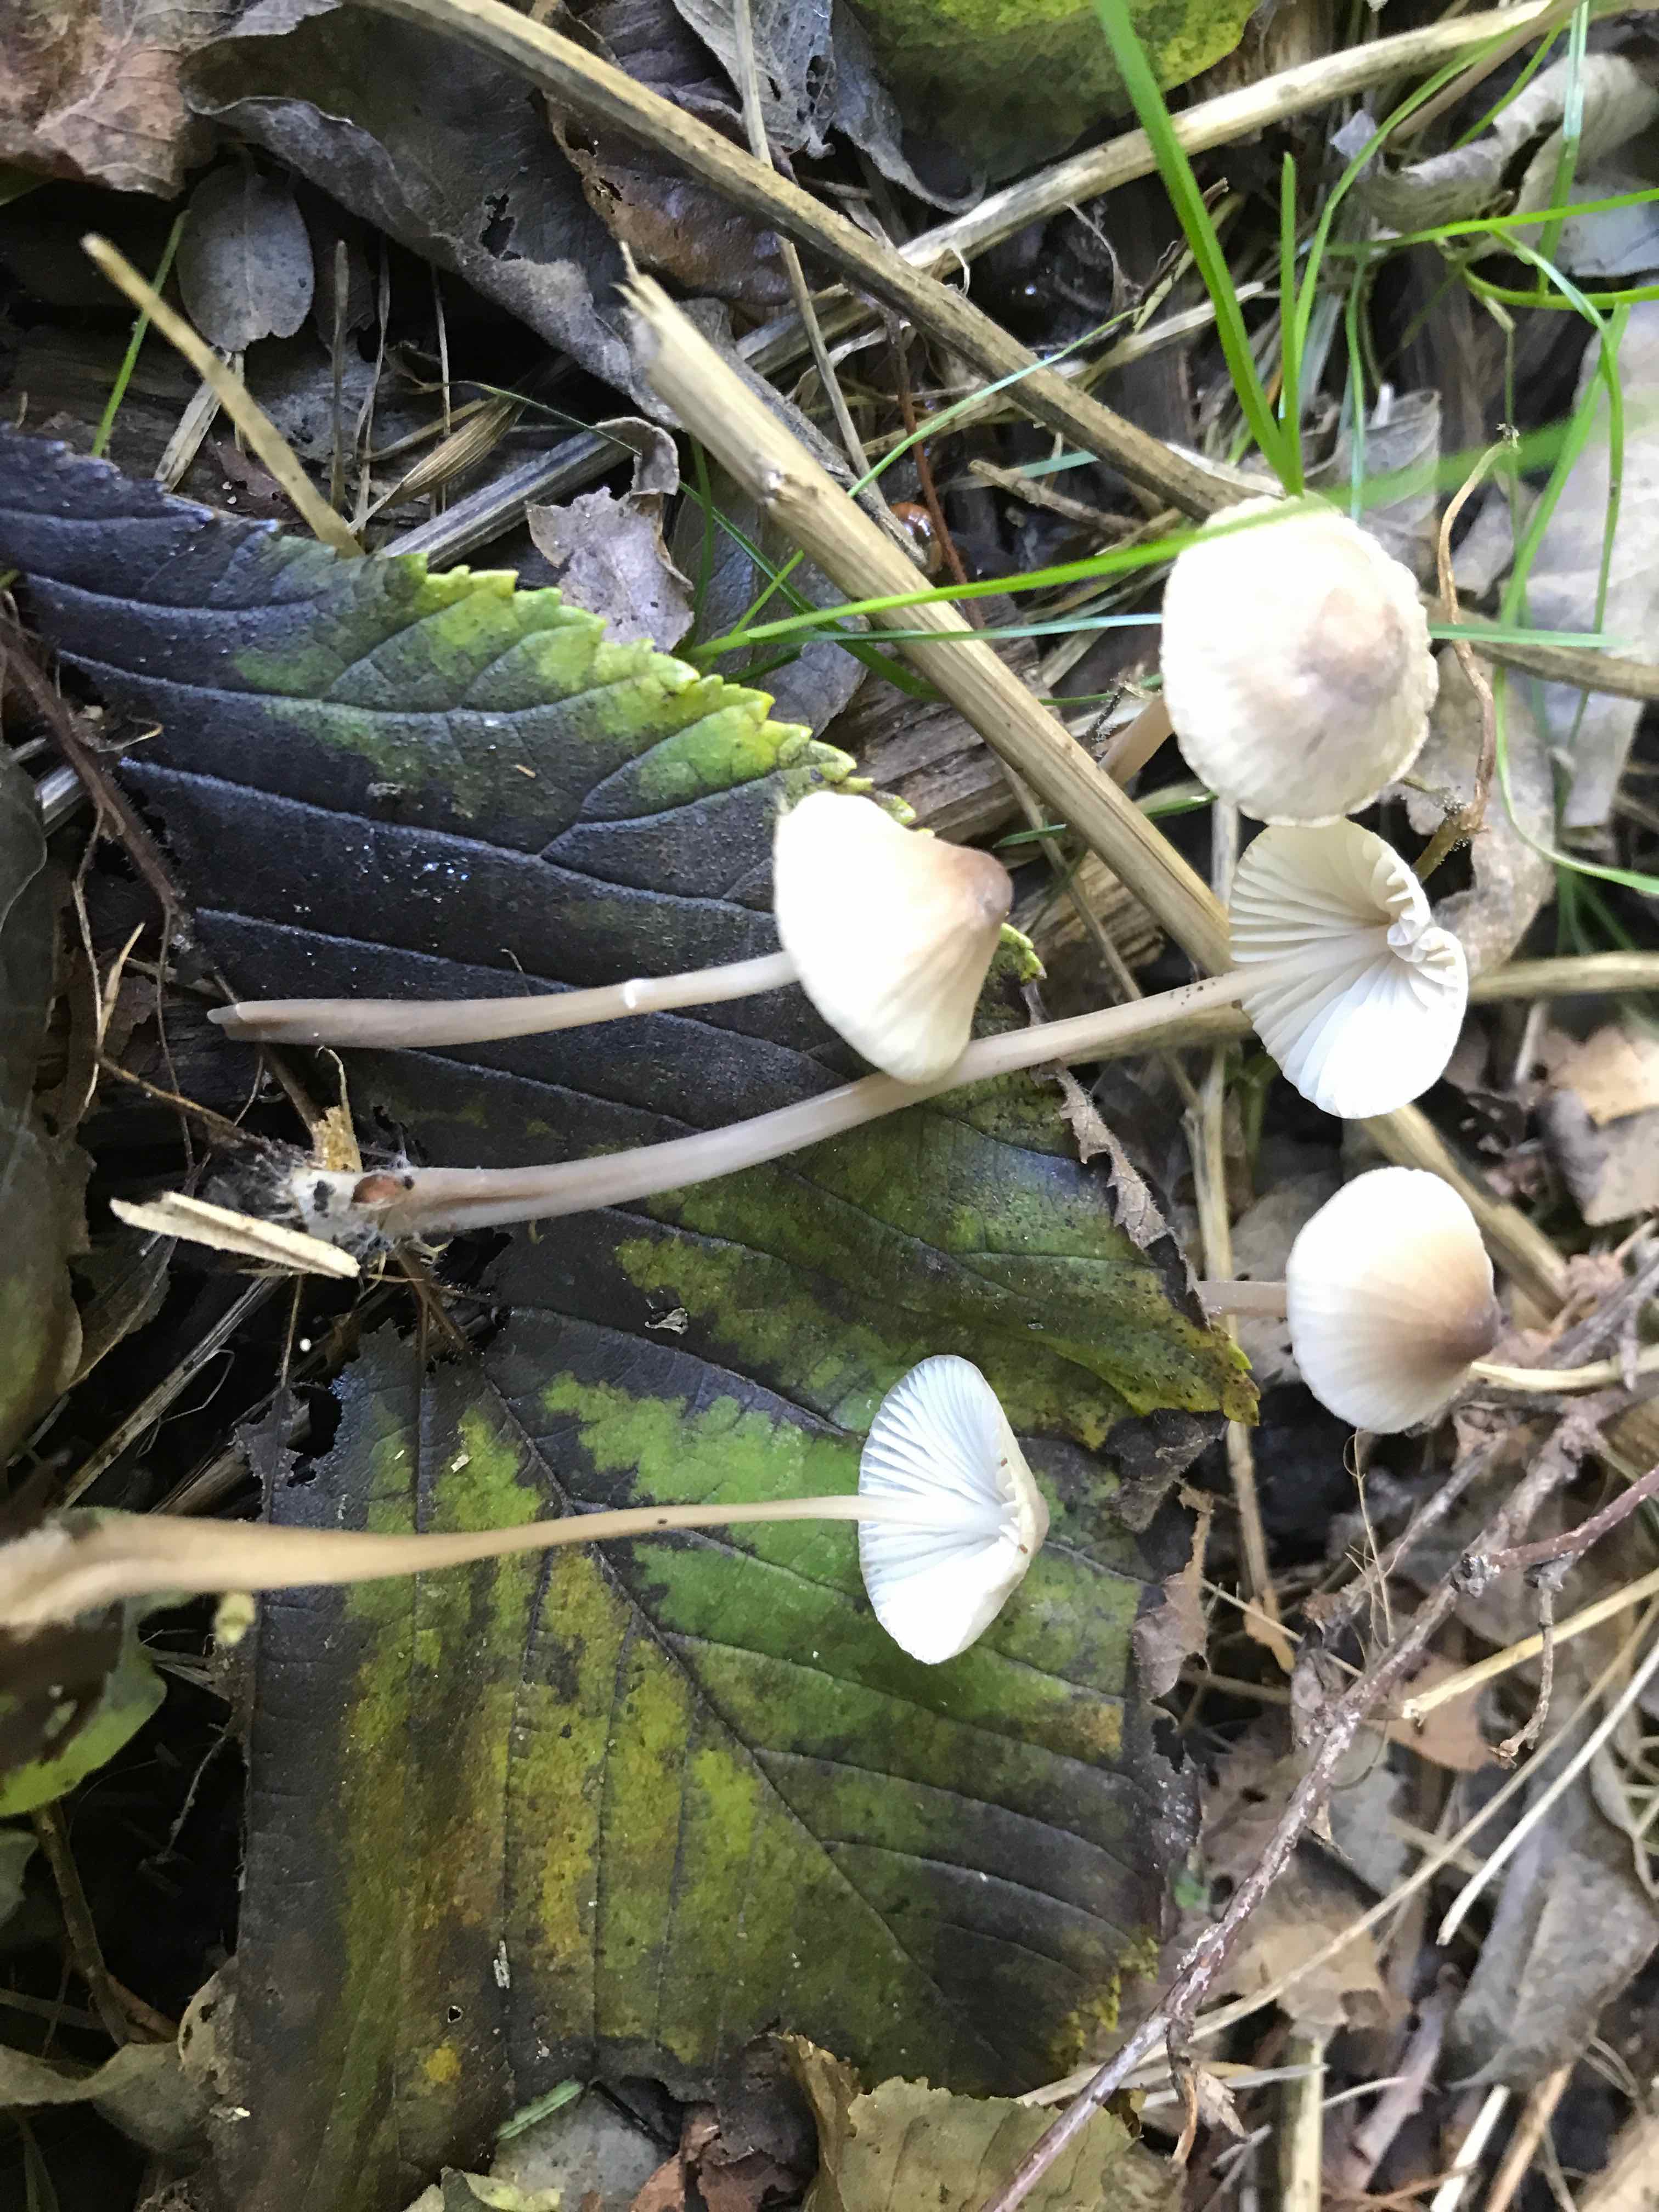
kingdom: Fungi
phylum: Basidiomycota
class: Agaricomycetes
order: Agaricales
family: Mycenaceae
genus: Mycena
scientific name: Mycena
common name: huesvamp
